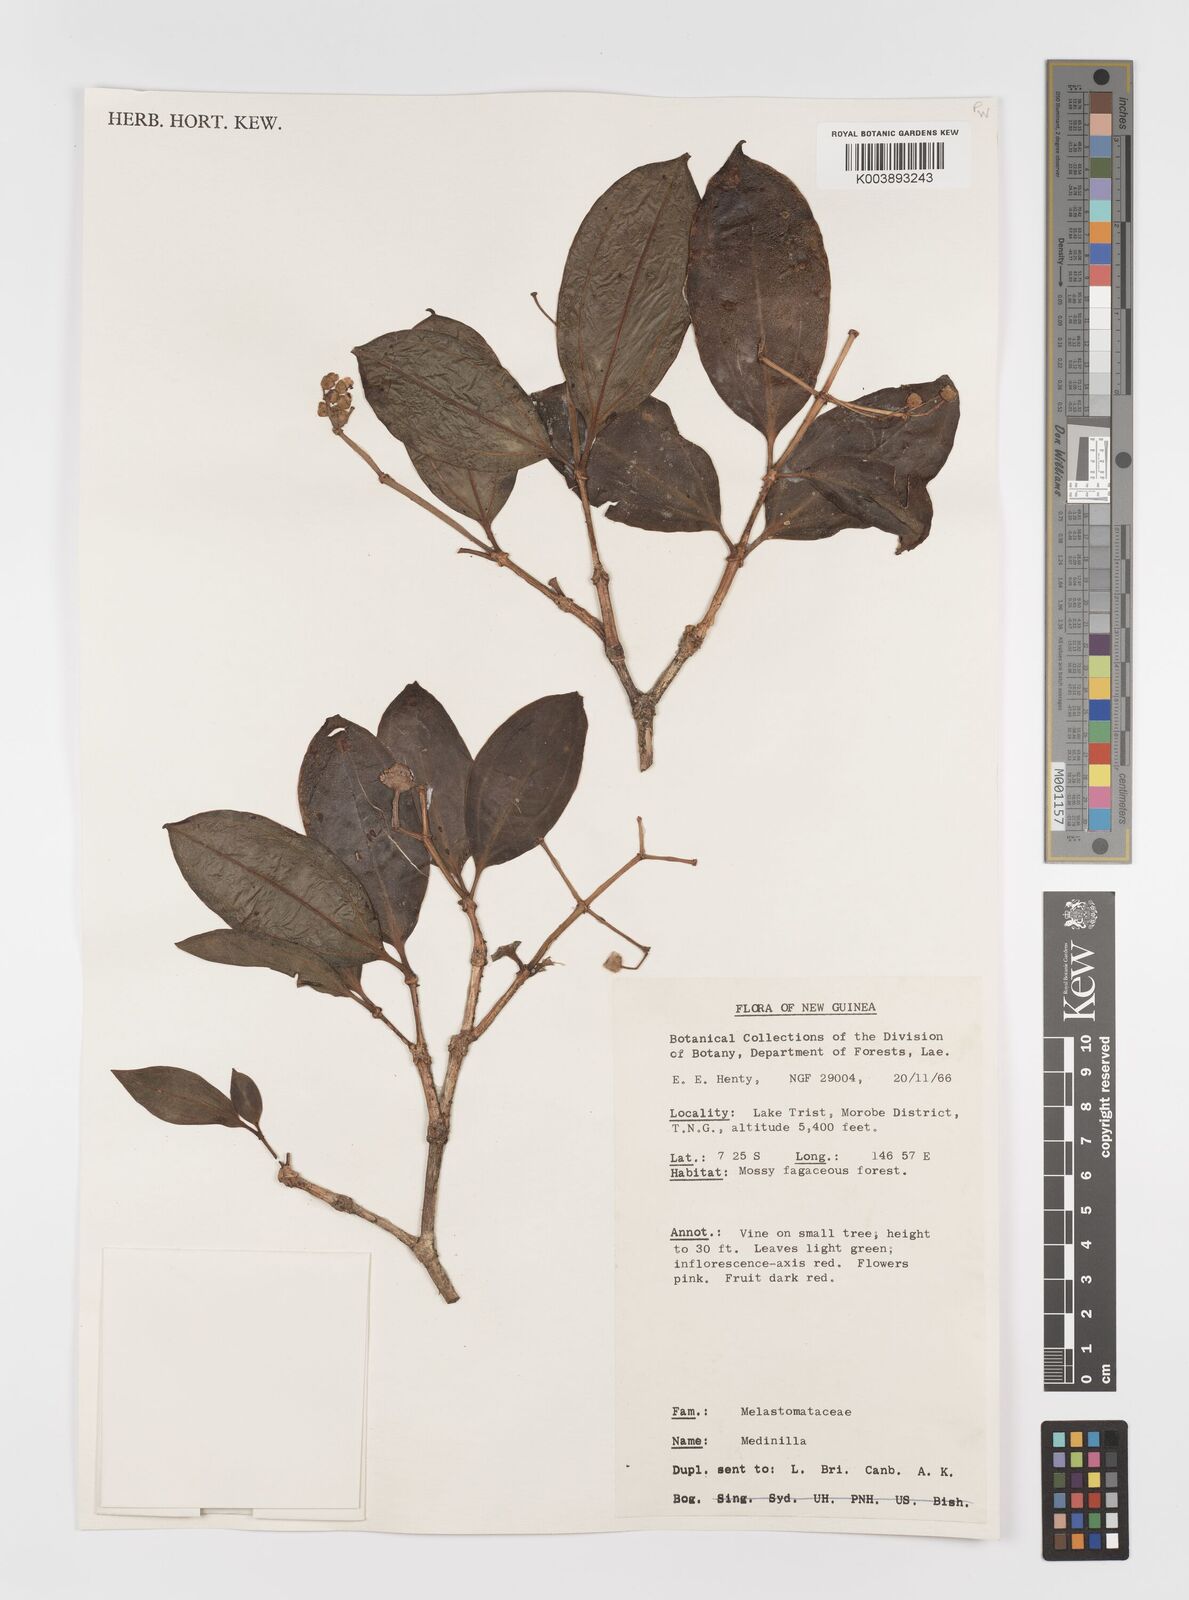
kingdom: Plantae
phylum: Tracheophyta
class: Magnoliopsida
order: Myrtales
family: Melastomataceae
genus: Medinilla
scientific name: Medinilla
